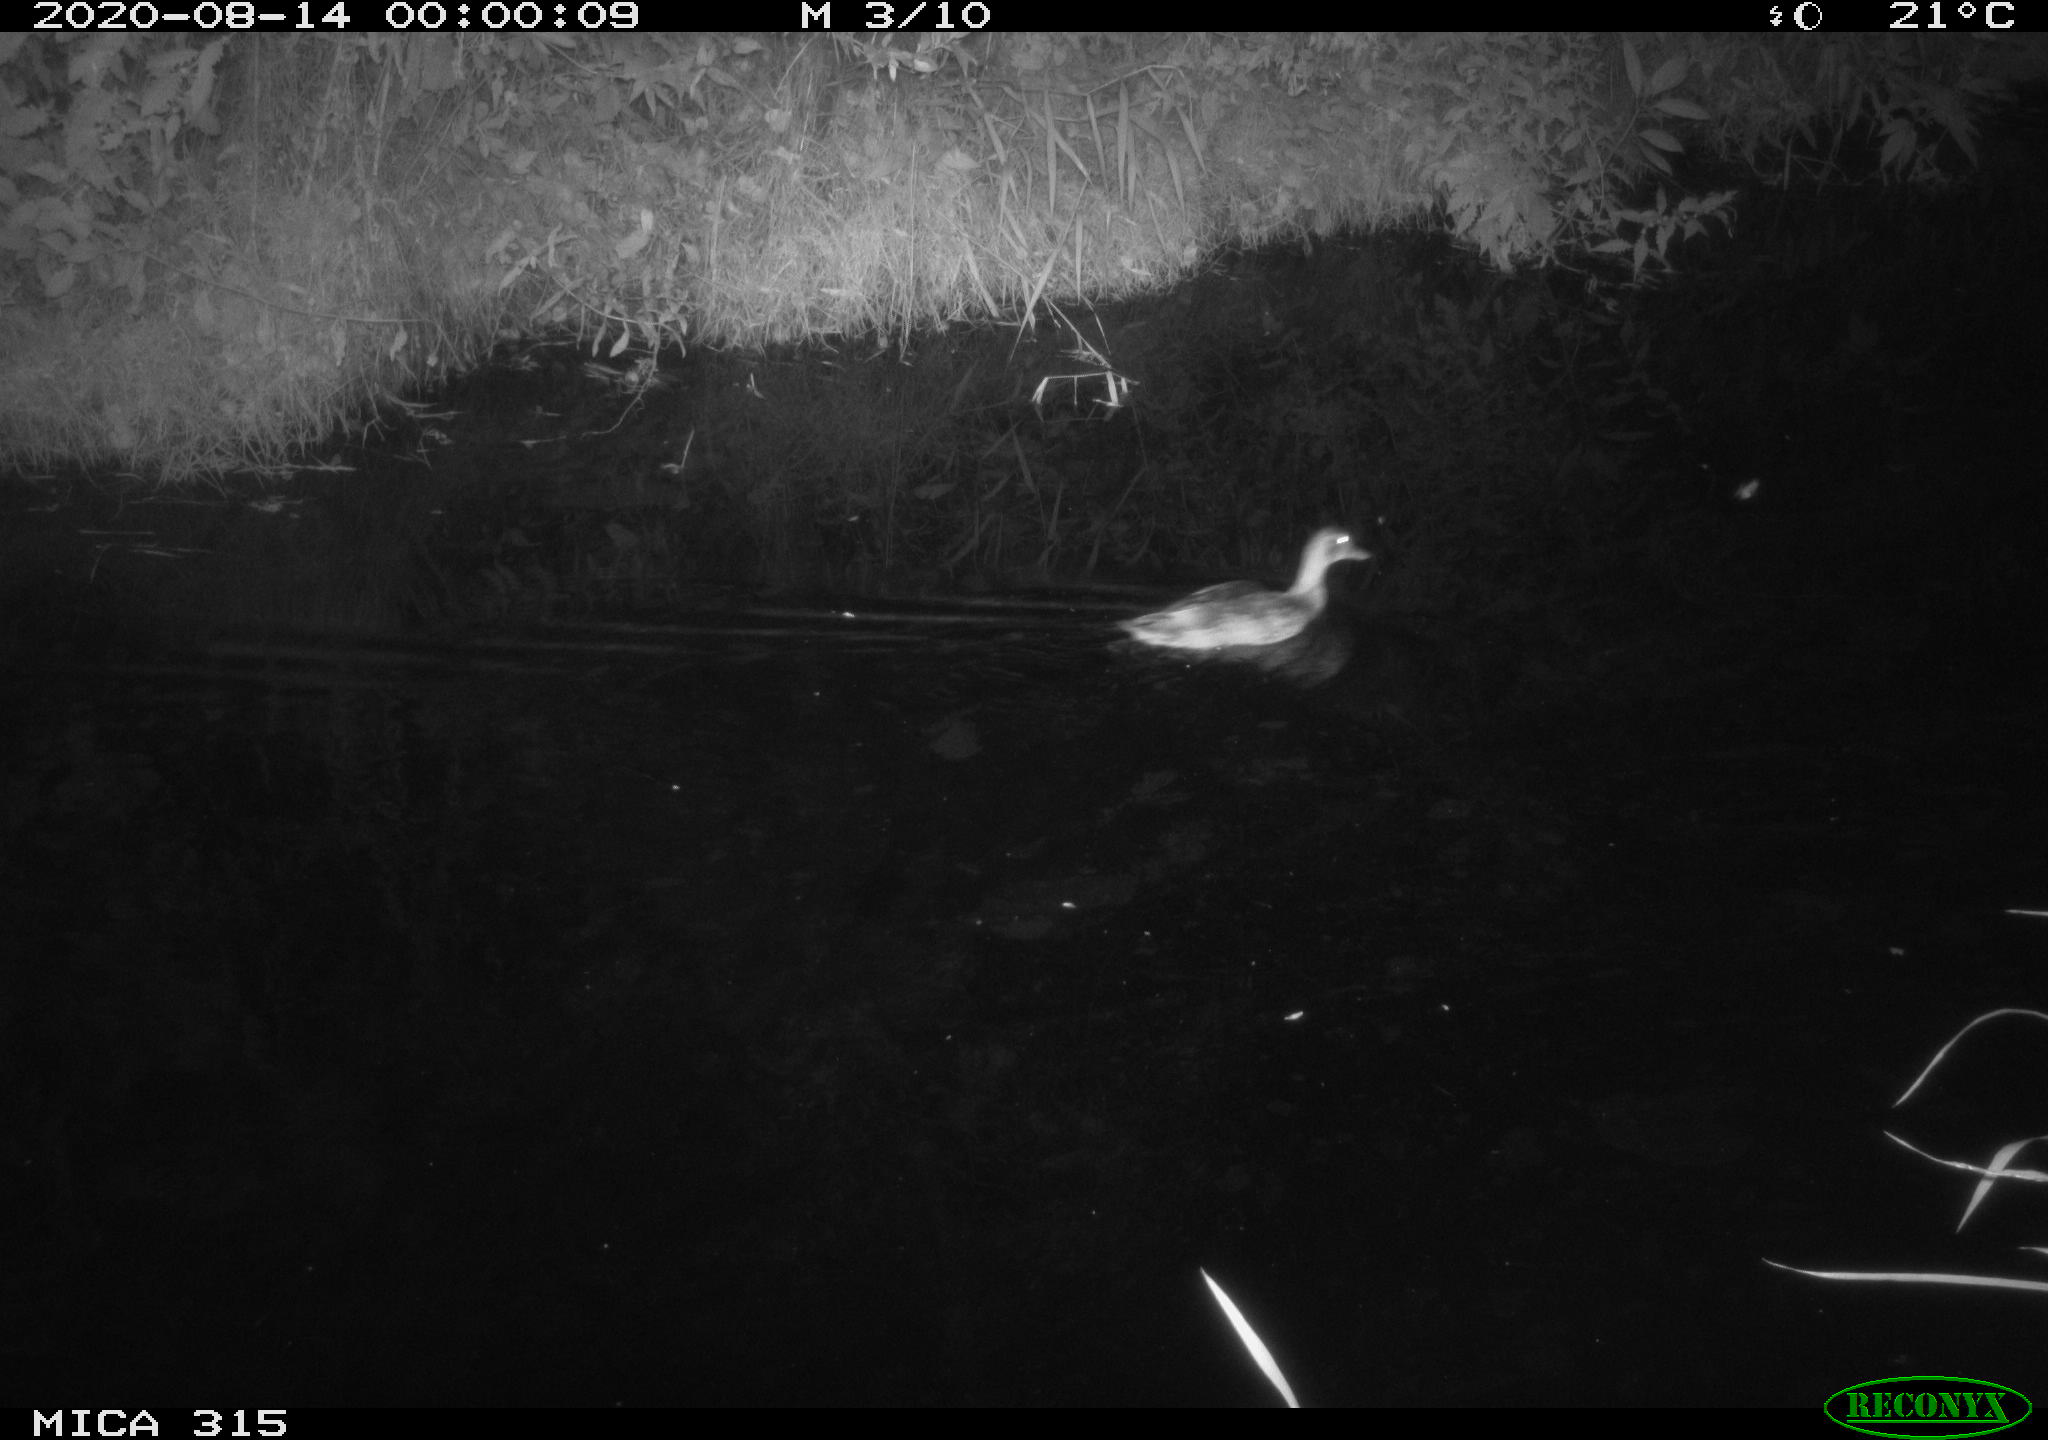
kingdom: Animalia
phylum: Chordata
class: Aves
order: Anseriformes
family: Anatidae
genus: Anas
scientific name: Anas platyrhynchos
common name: Mallard
